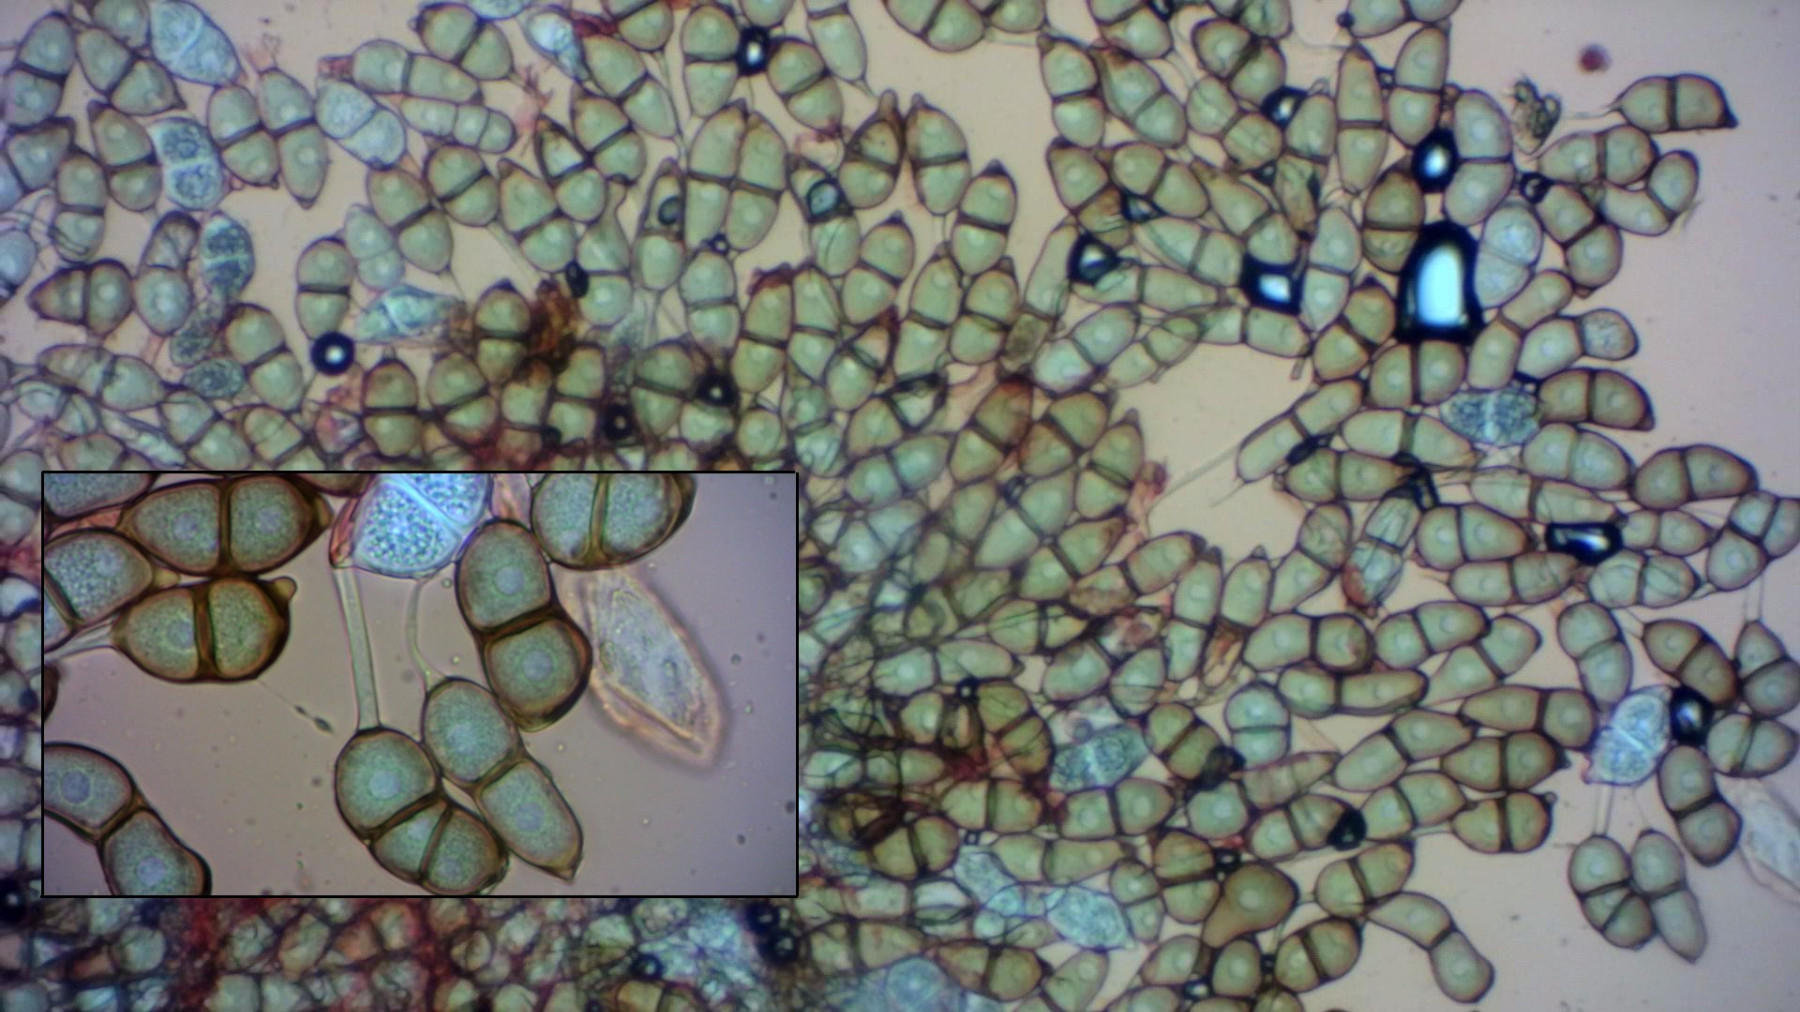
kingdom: Fungi
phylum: Basidiomycota
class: Pucciniomycetes
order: Pucciniales
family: Pucciniaceae
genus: Puccinia
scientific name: Puccinia glechomatis
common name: Ground ivy rust
